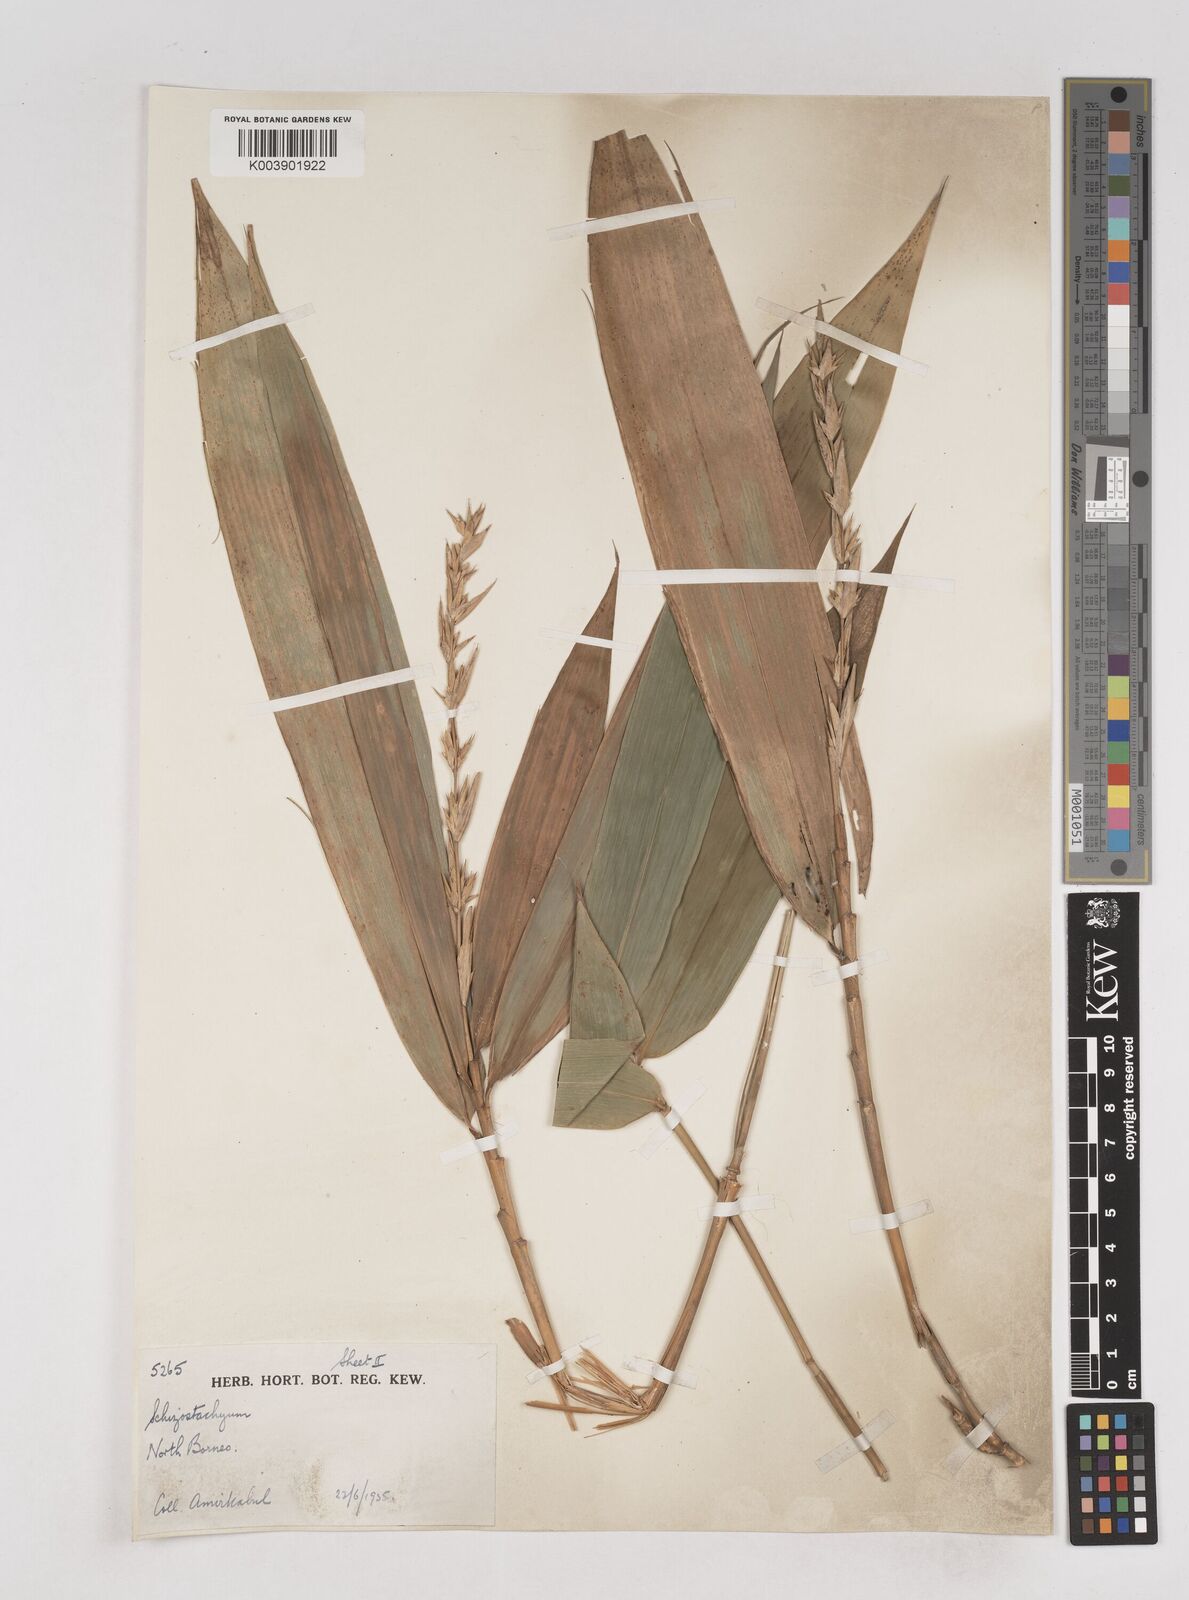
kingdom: Plantae
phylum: Tracheophyta
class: Liliopsida
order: Poales
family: Poaceae
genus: Schizostachyum
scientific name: Schizostachyum brachycladum
